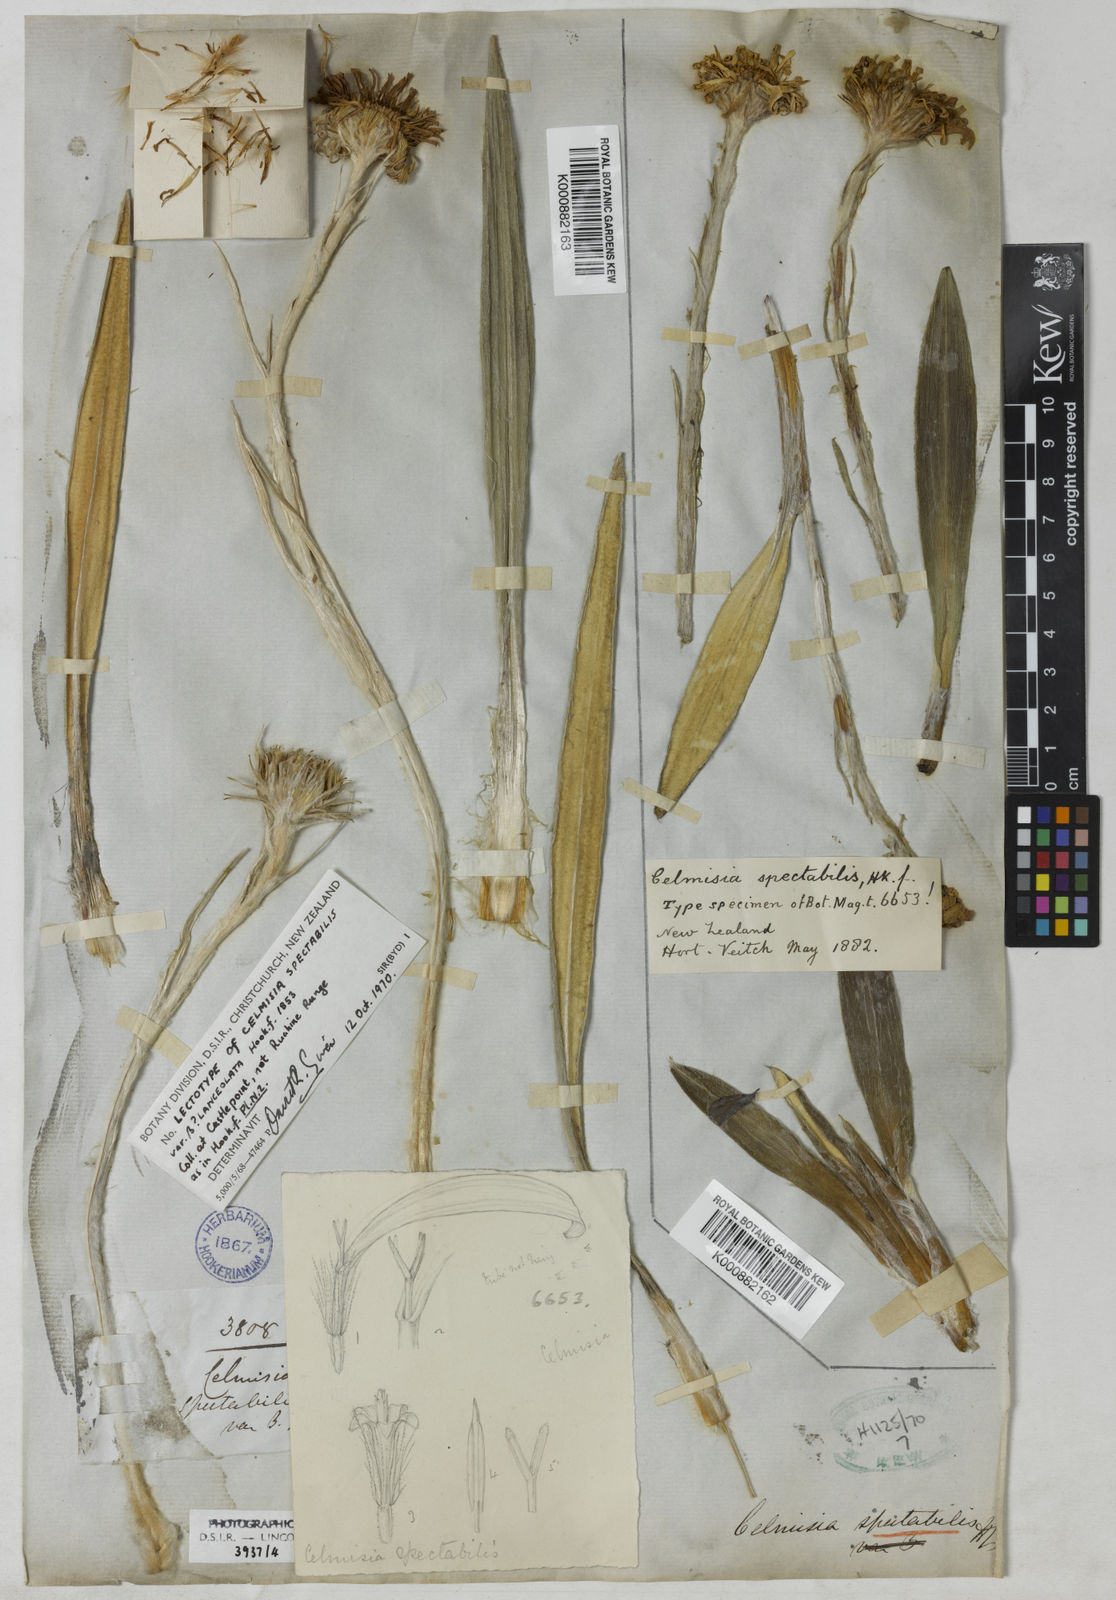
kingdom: Plantae
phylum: Tracheophyta
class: Magnoliopsida
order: Asterales
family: Asteraceae
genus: Celmisia
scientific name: Celmisia spectabilis
